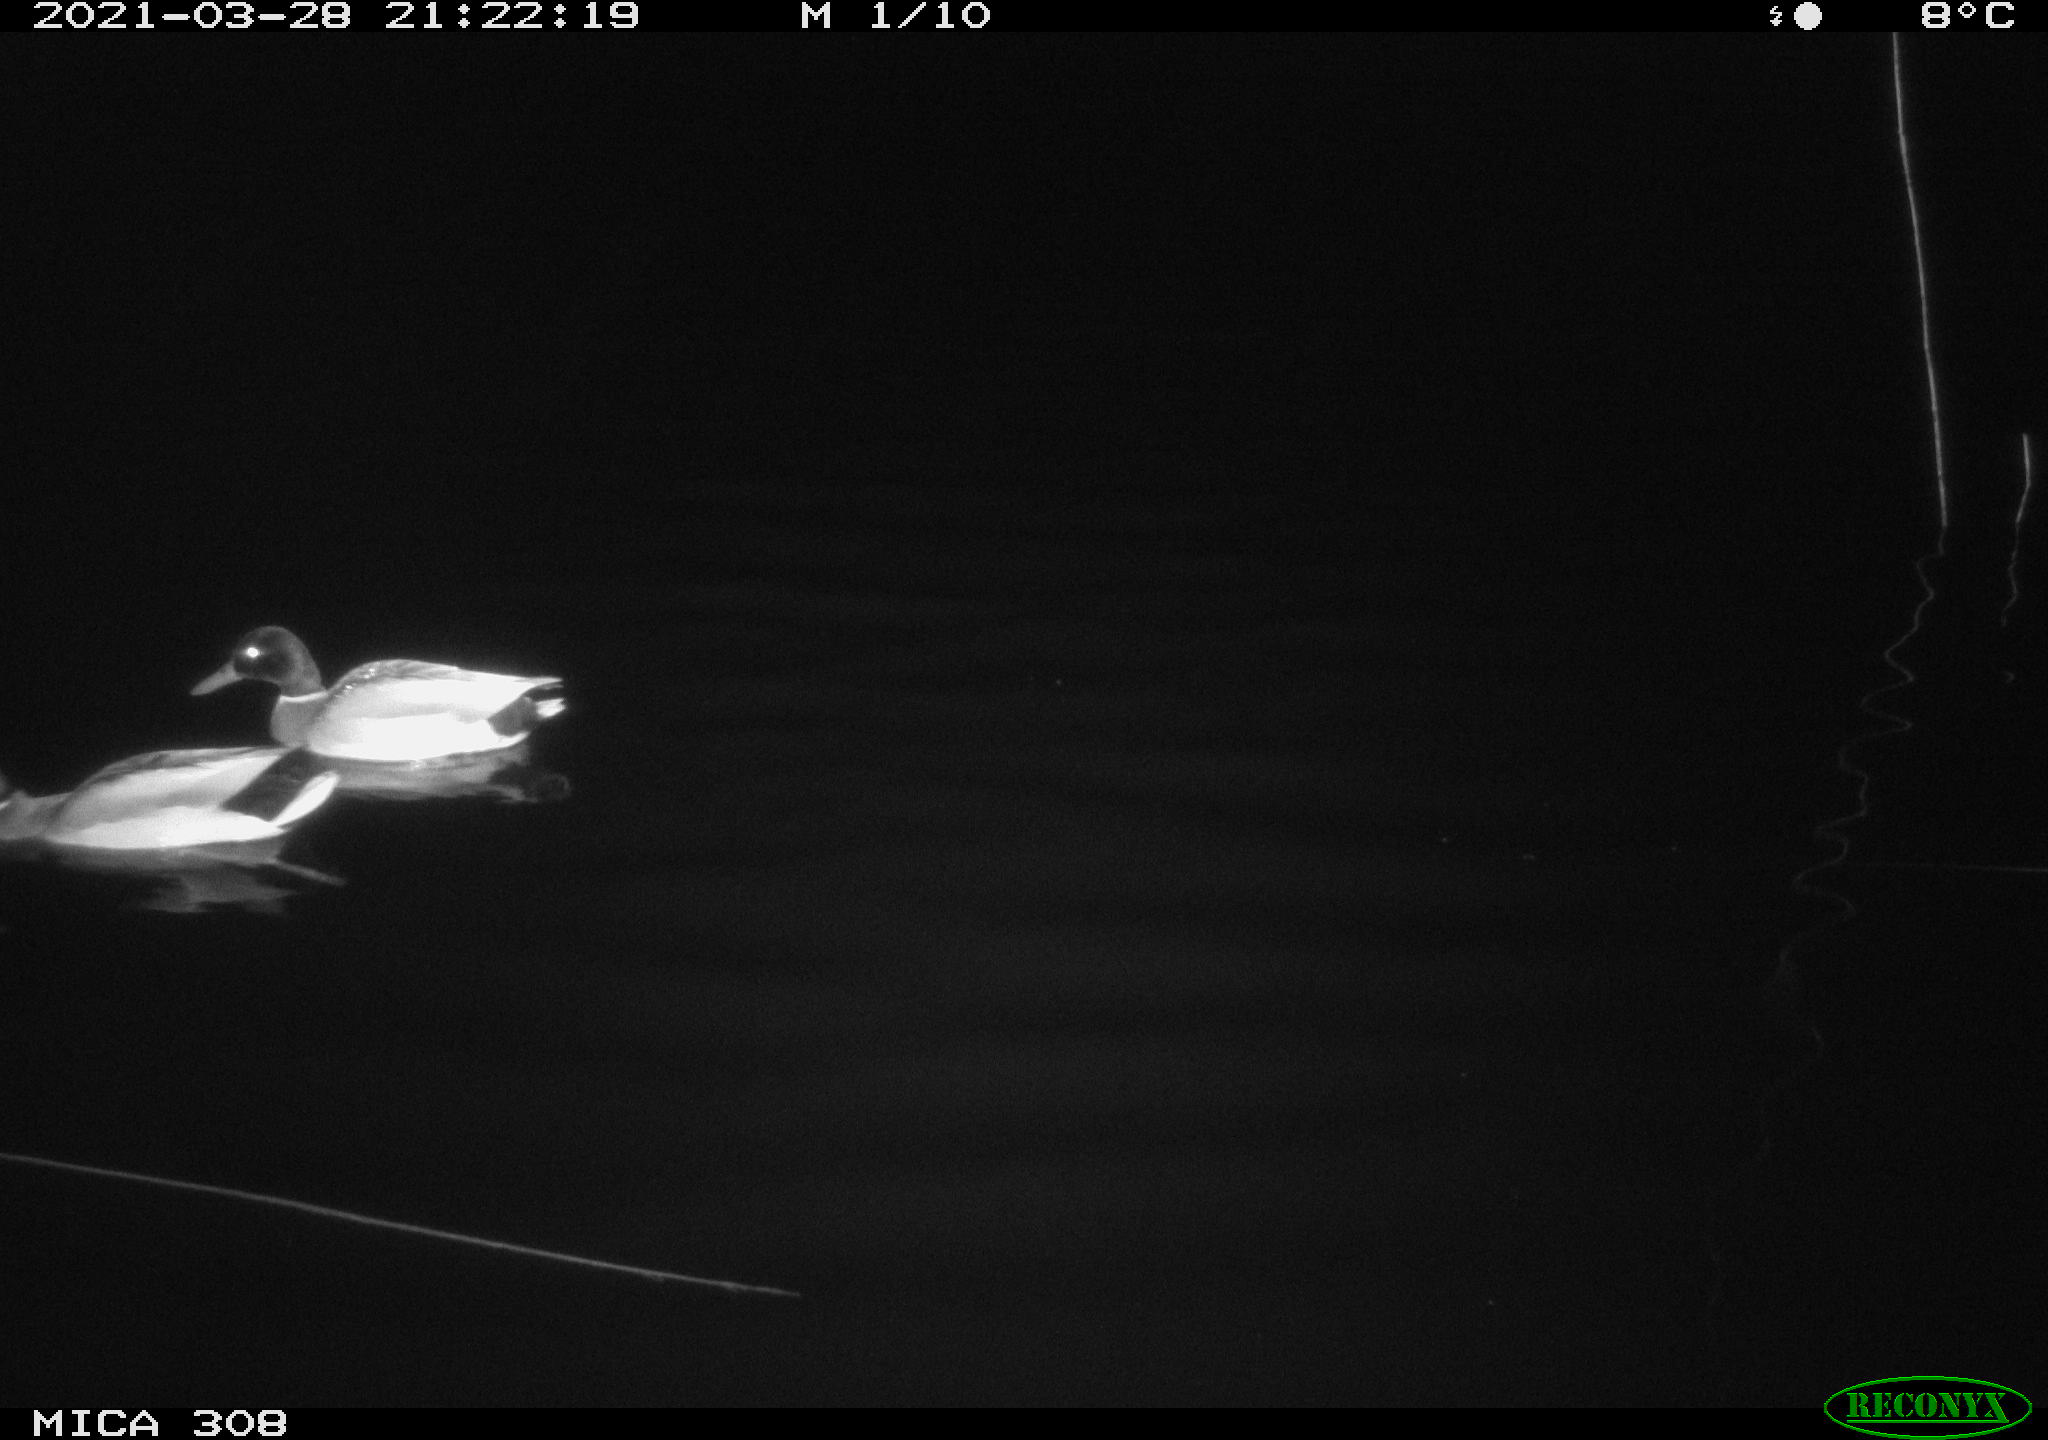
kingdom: Animalia
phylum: Chordata
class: Aves
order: Anseriformes
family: Anatidae
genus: Anas
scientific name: Anas platyrhynchos
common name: Mallard
